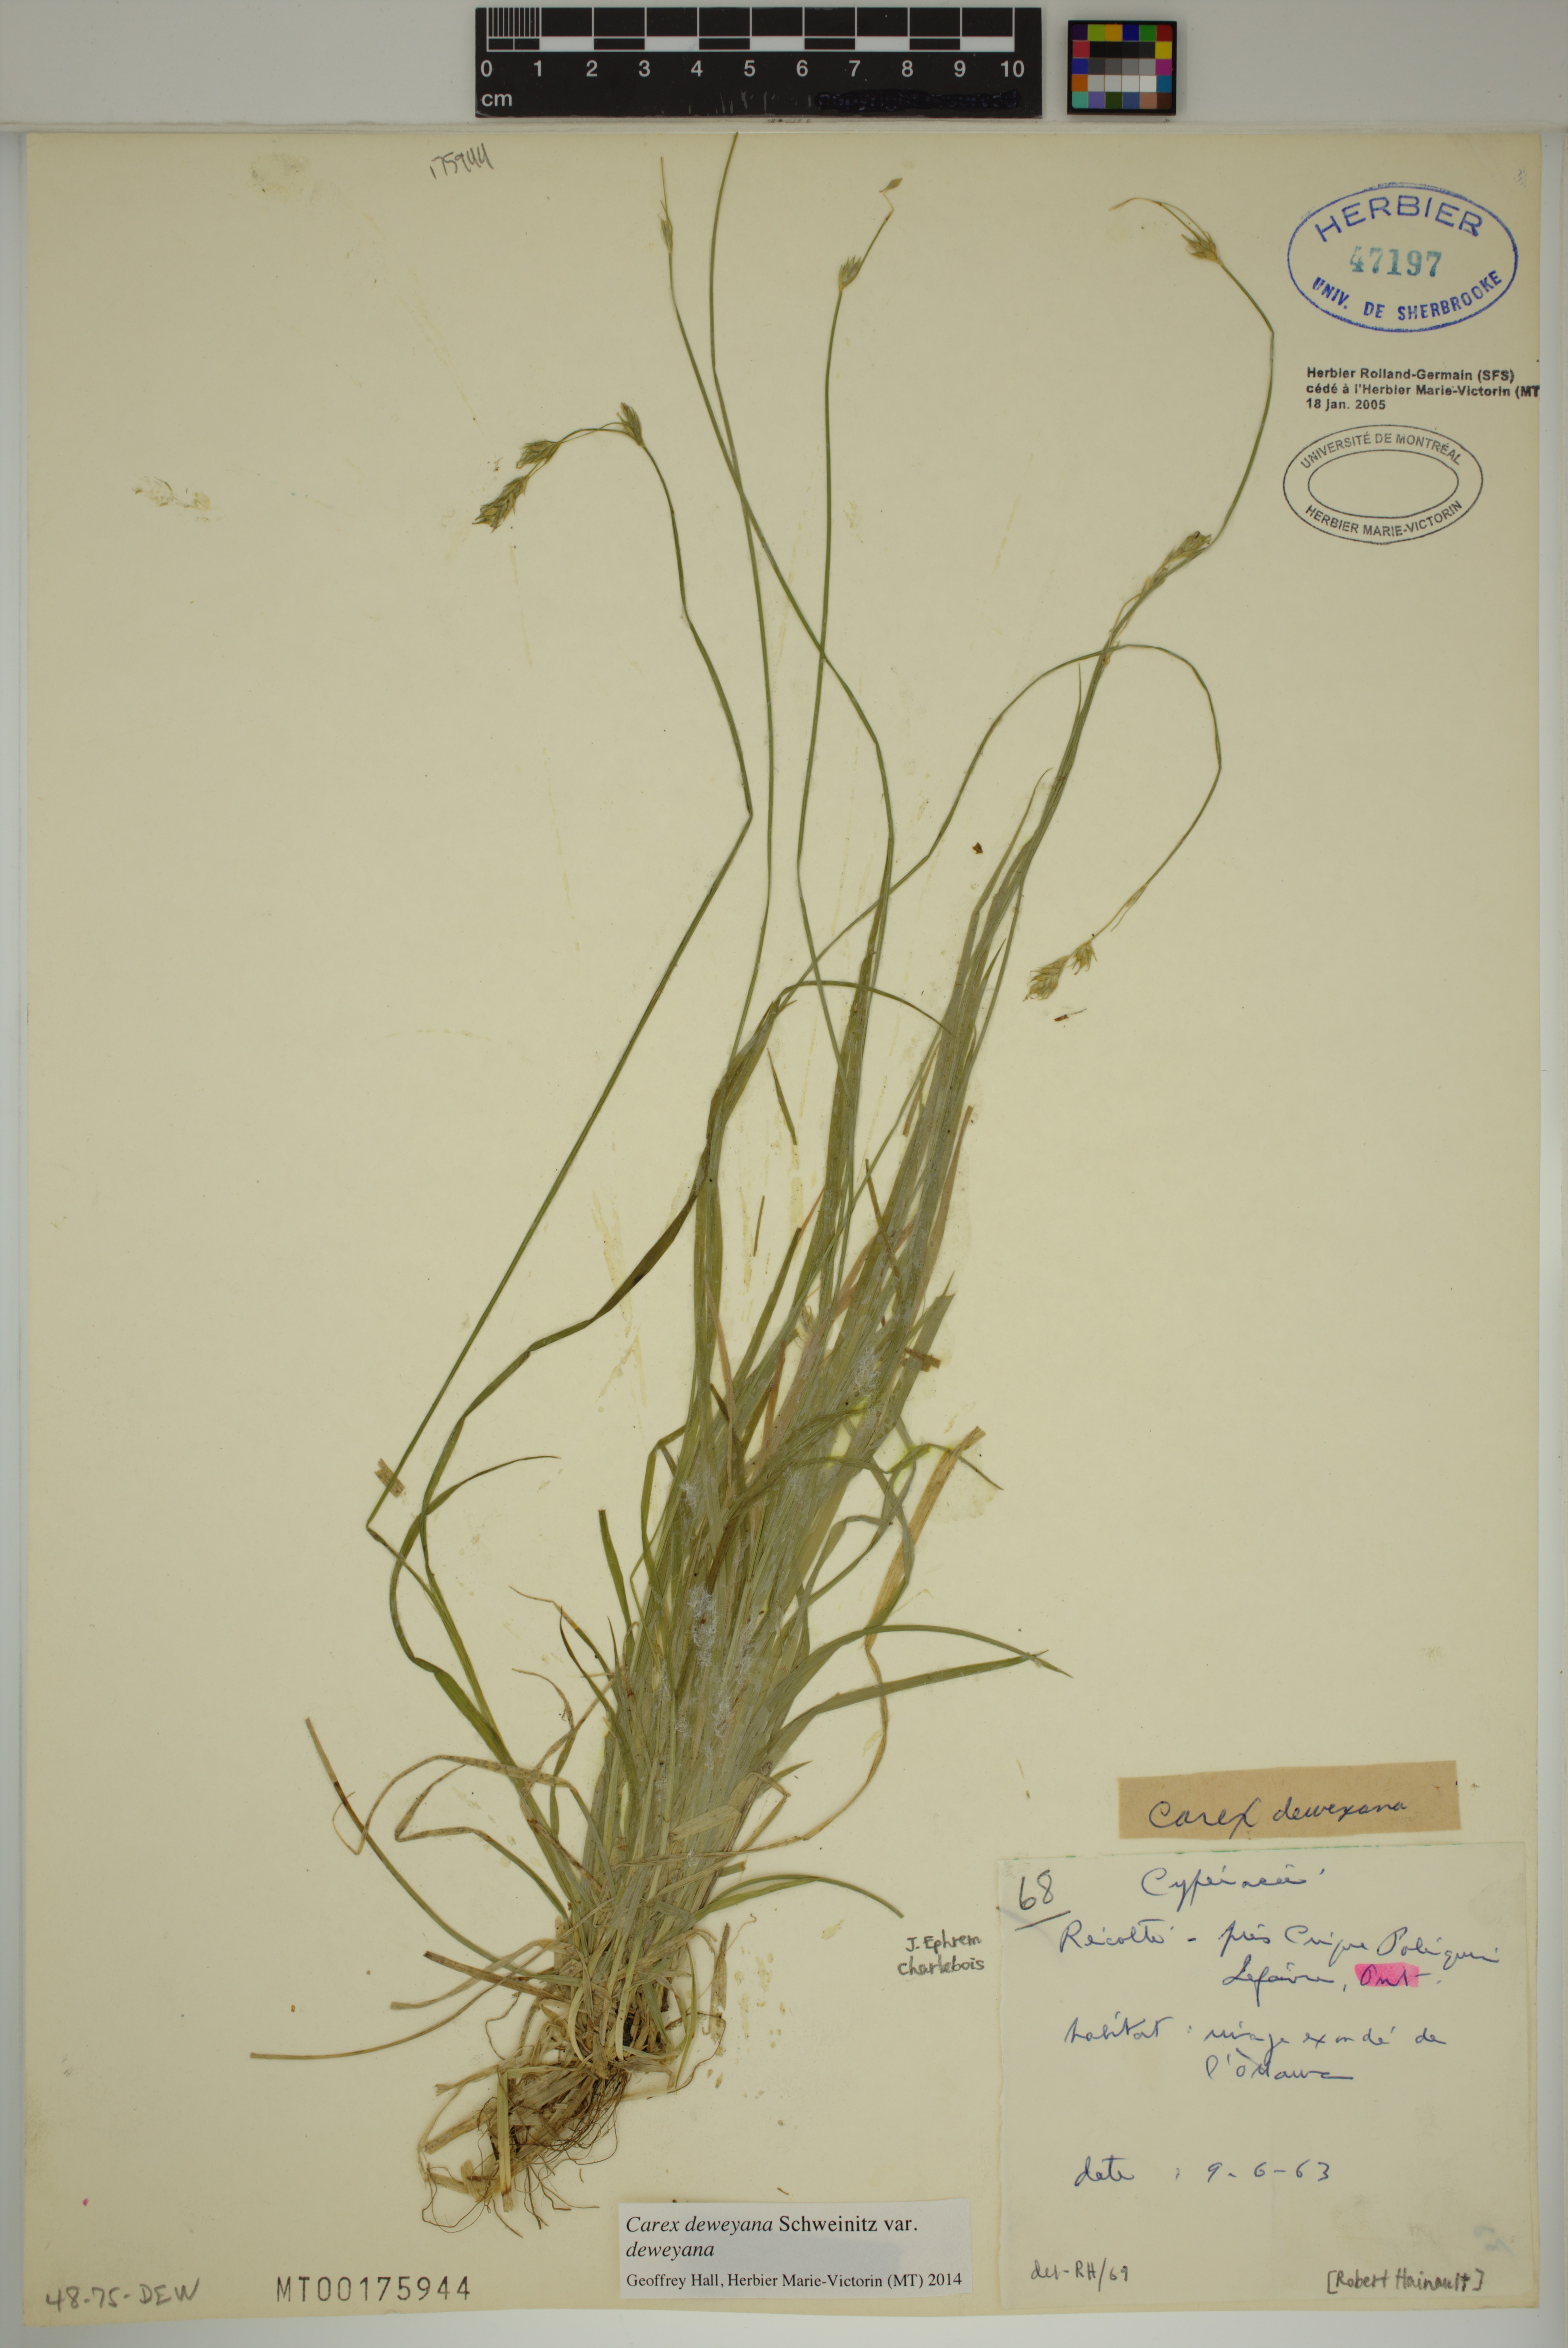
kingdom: Plantae
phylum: Tracheophyta
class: Liliopsida
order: Poales
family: Cyperaceae
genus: Carex
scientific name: Carex deweyana
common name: Dewey's sedge
